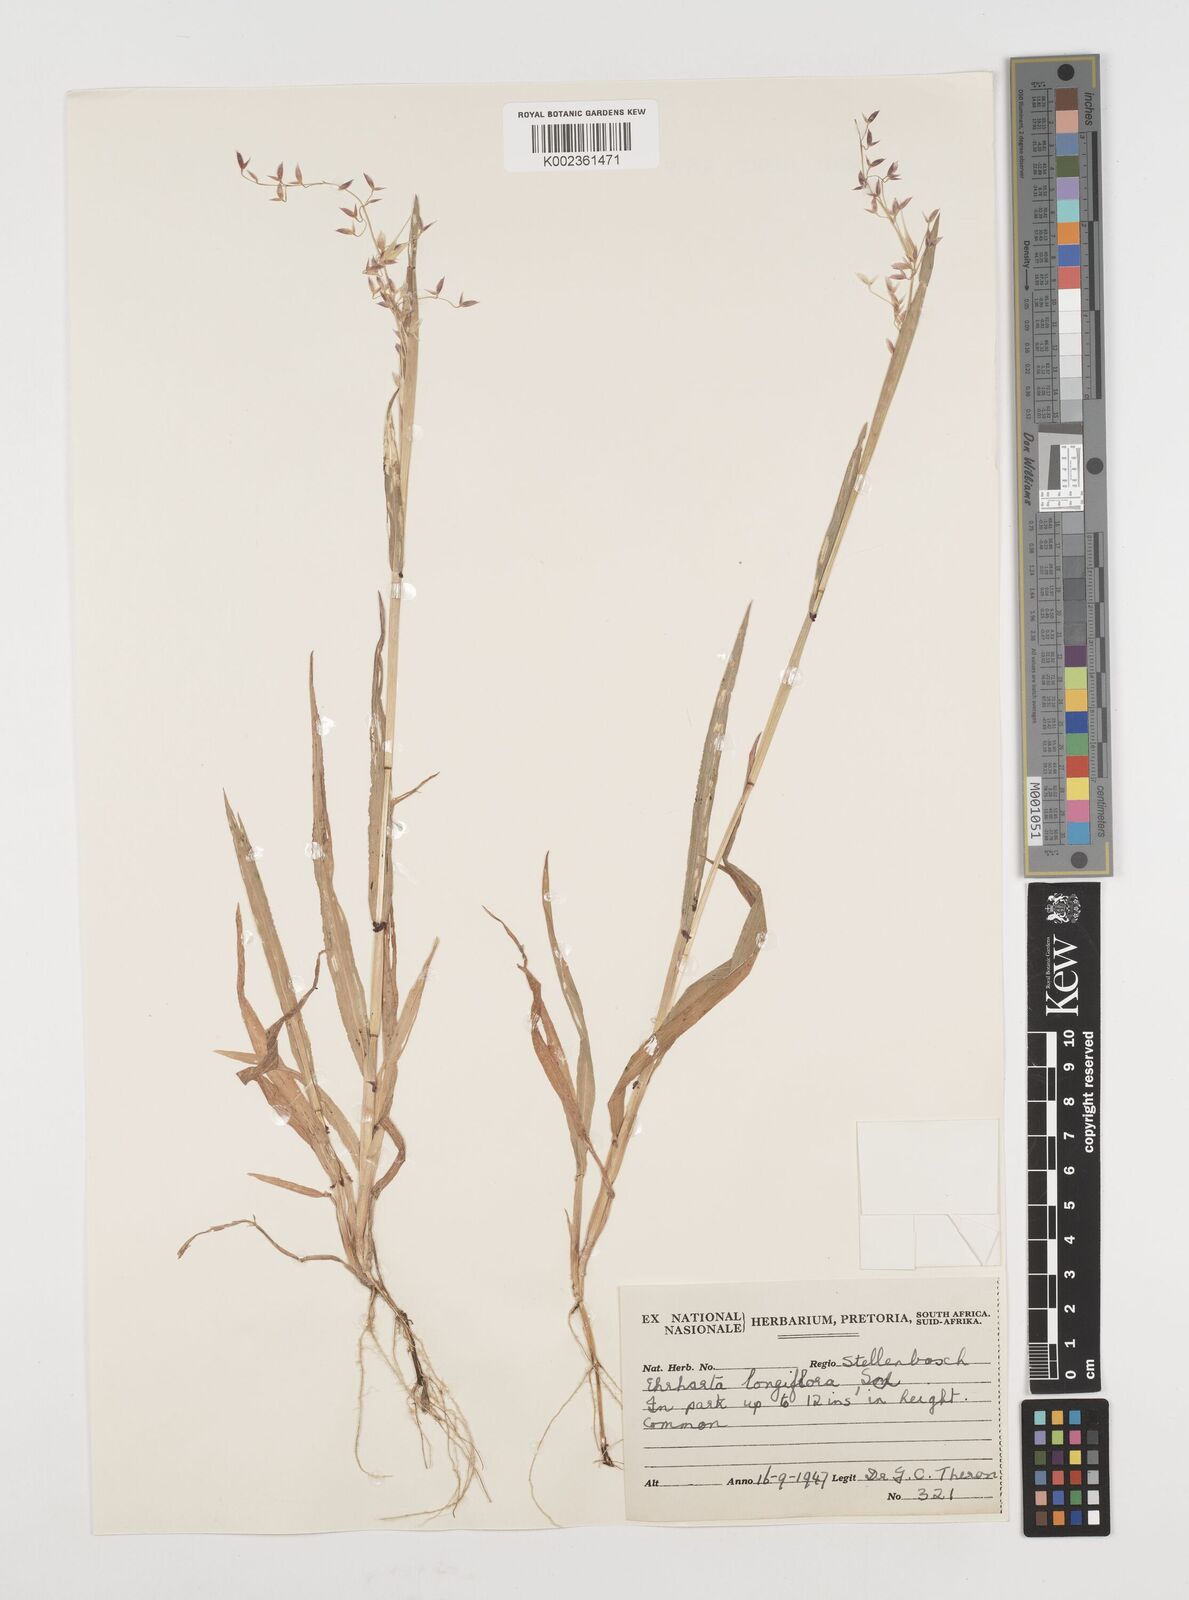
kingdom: Plantae
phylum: Tracheophyta
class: Liliopsida
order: Poales
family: Poaceae
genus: Ehrharta
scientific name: Ehrharta longiflora
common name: Longflowered veldtgrass
